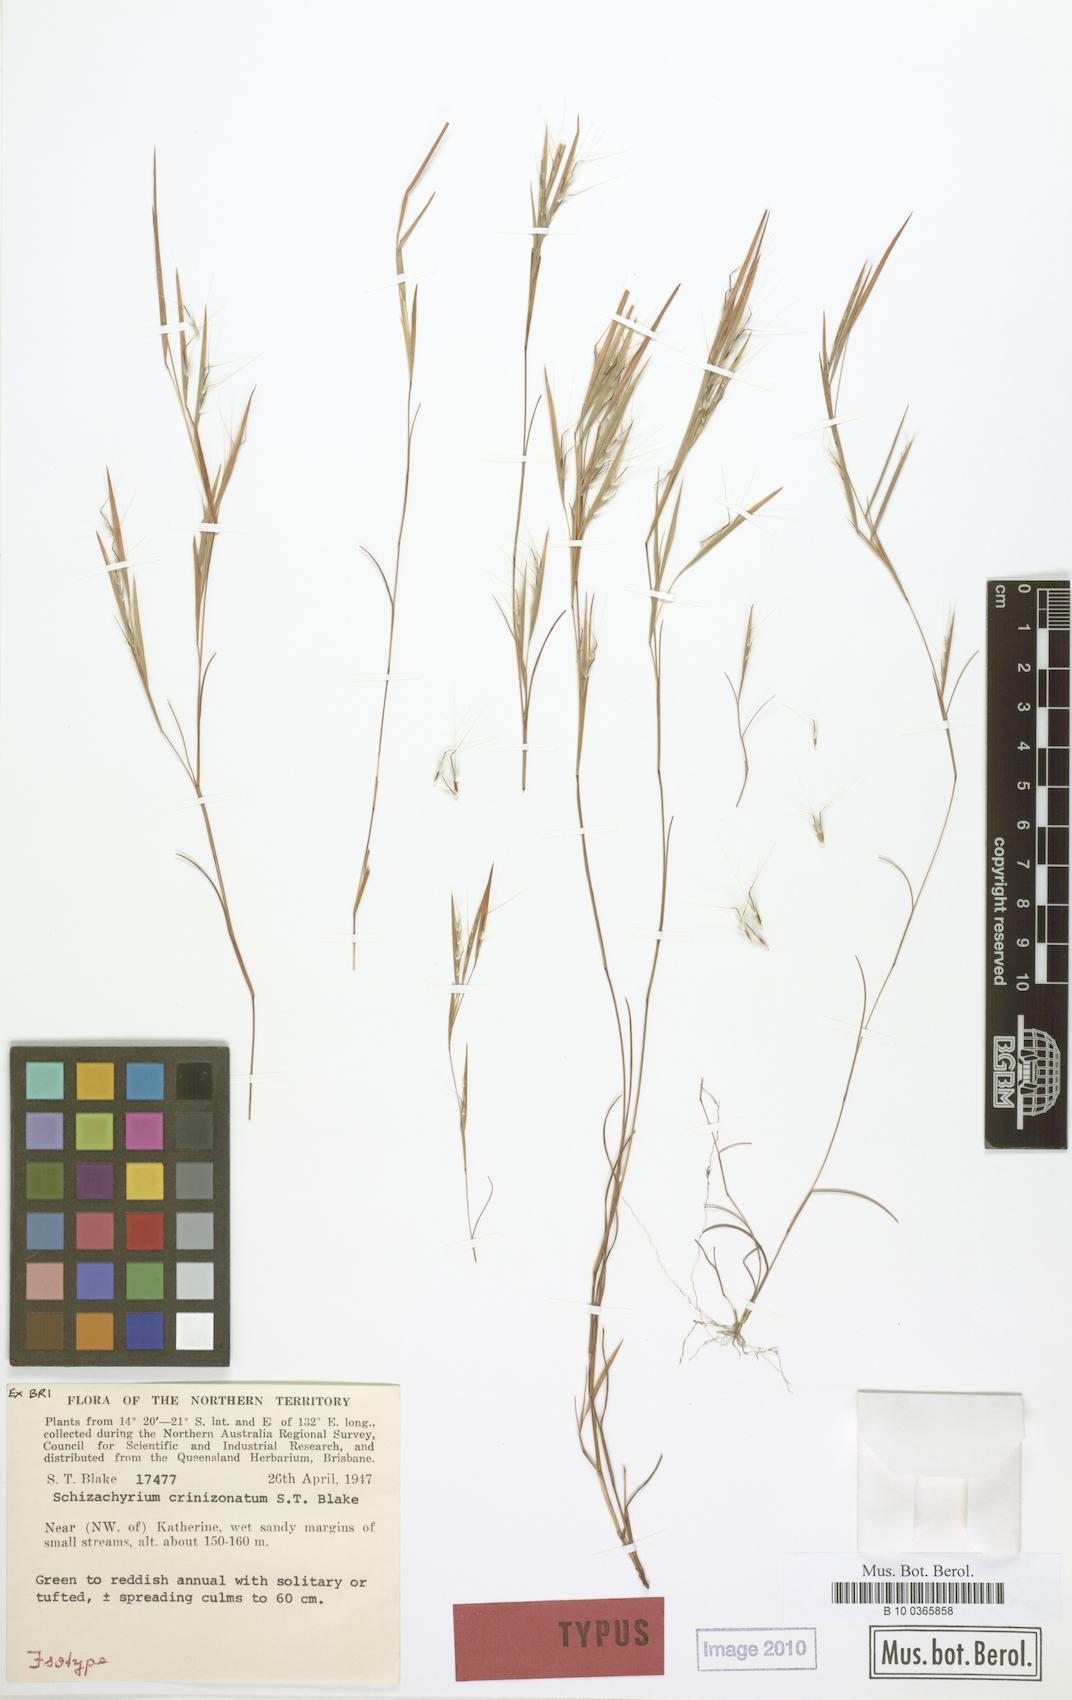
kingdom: Plantae
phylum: Tracheophyta
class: Liliopsida
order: Poales
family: Poaceae
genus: Schizachyrium
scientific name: Schizachyrium crinizonatum
